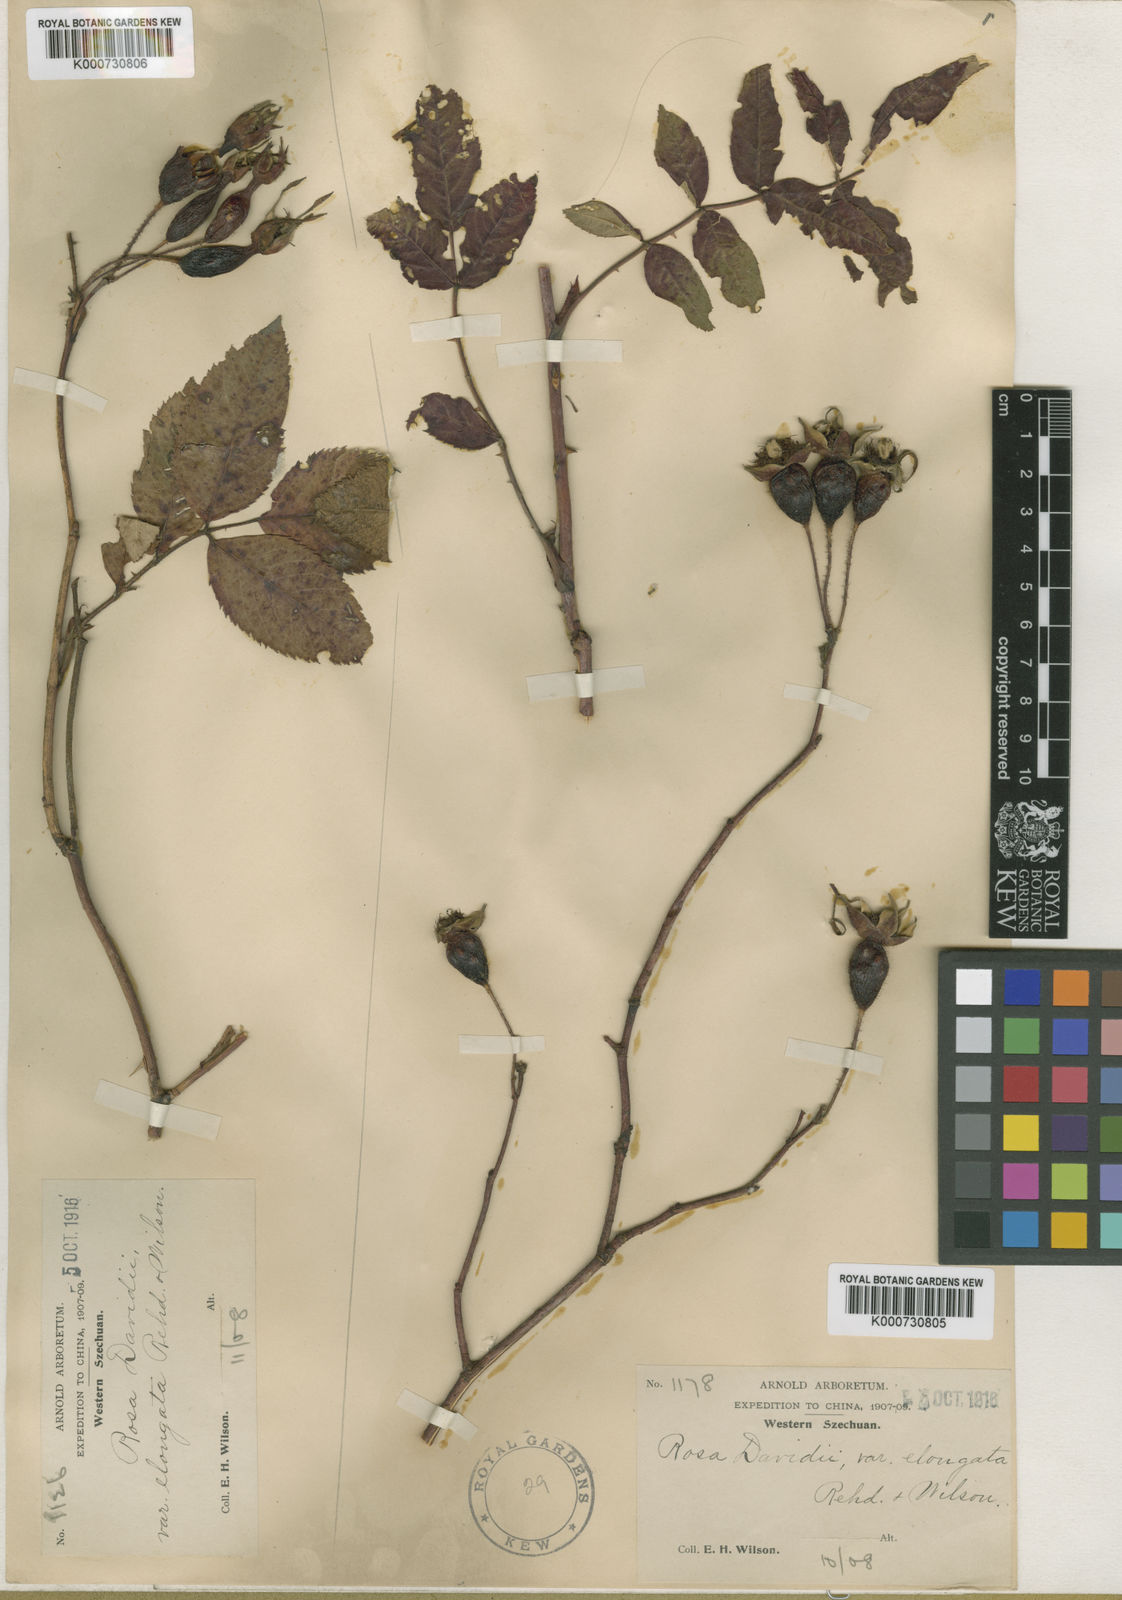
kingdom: Plantae
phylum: Tracheophyta
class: Magnoliopsida
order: Rosales
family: Rosaceae
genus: Rosa
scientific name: Rosa
